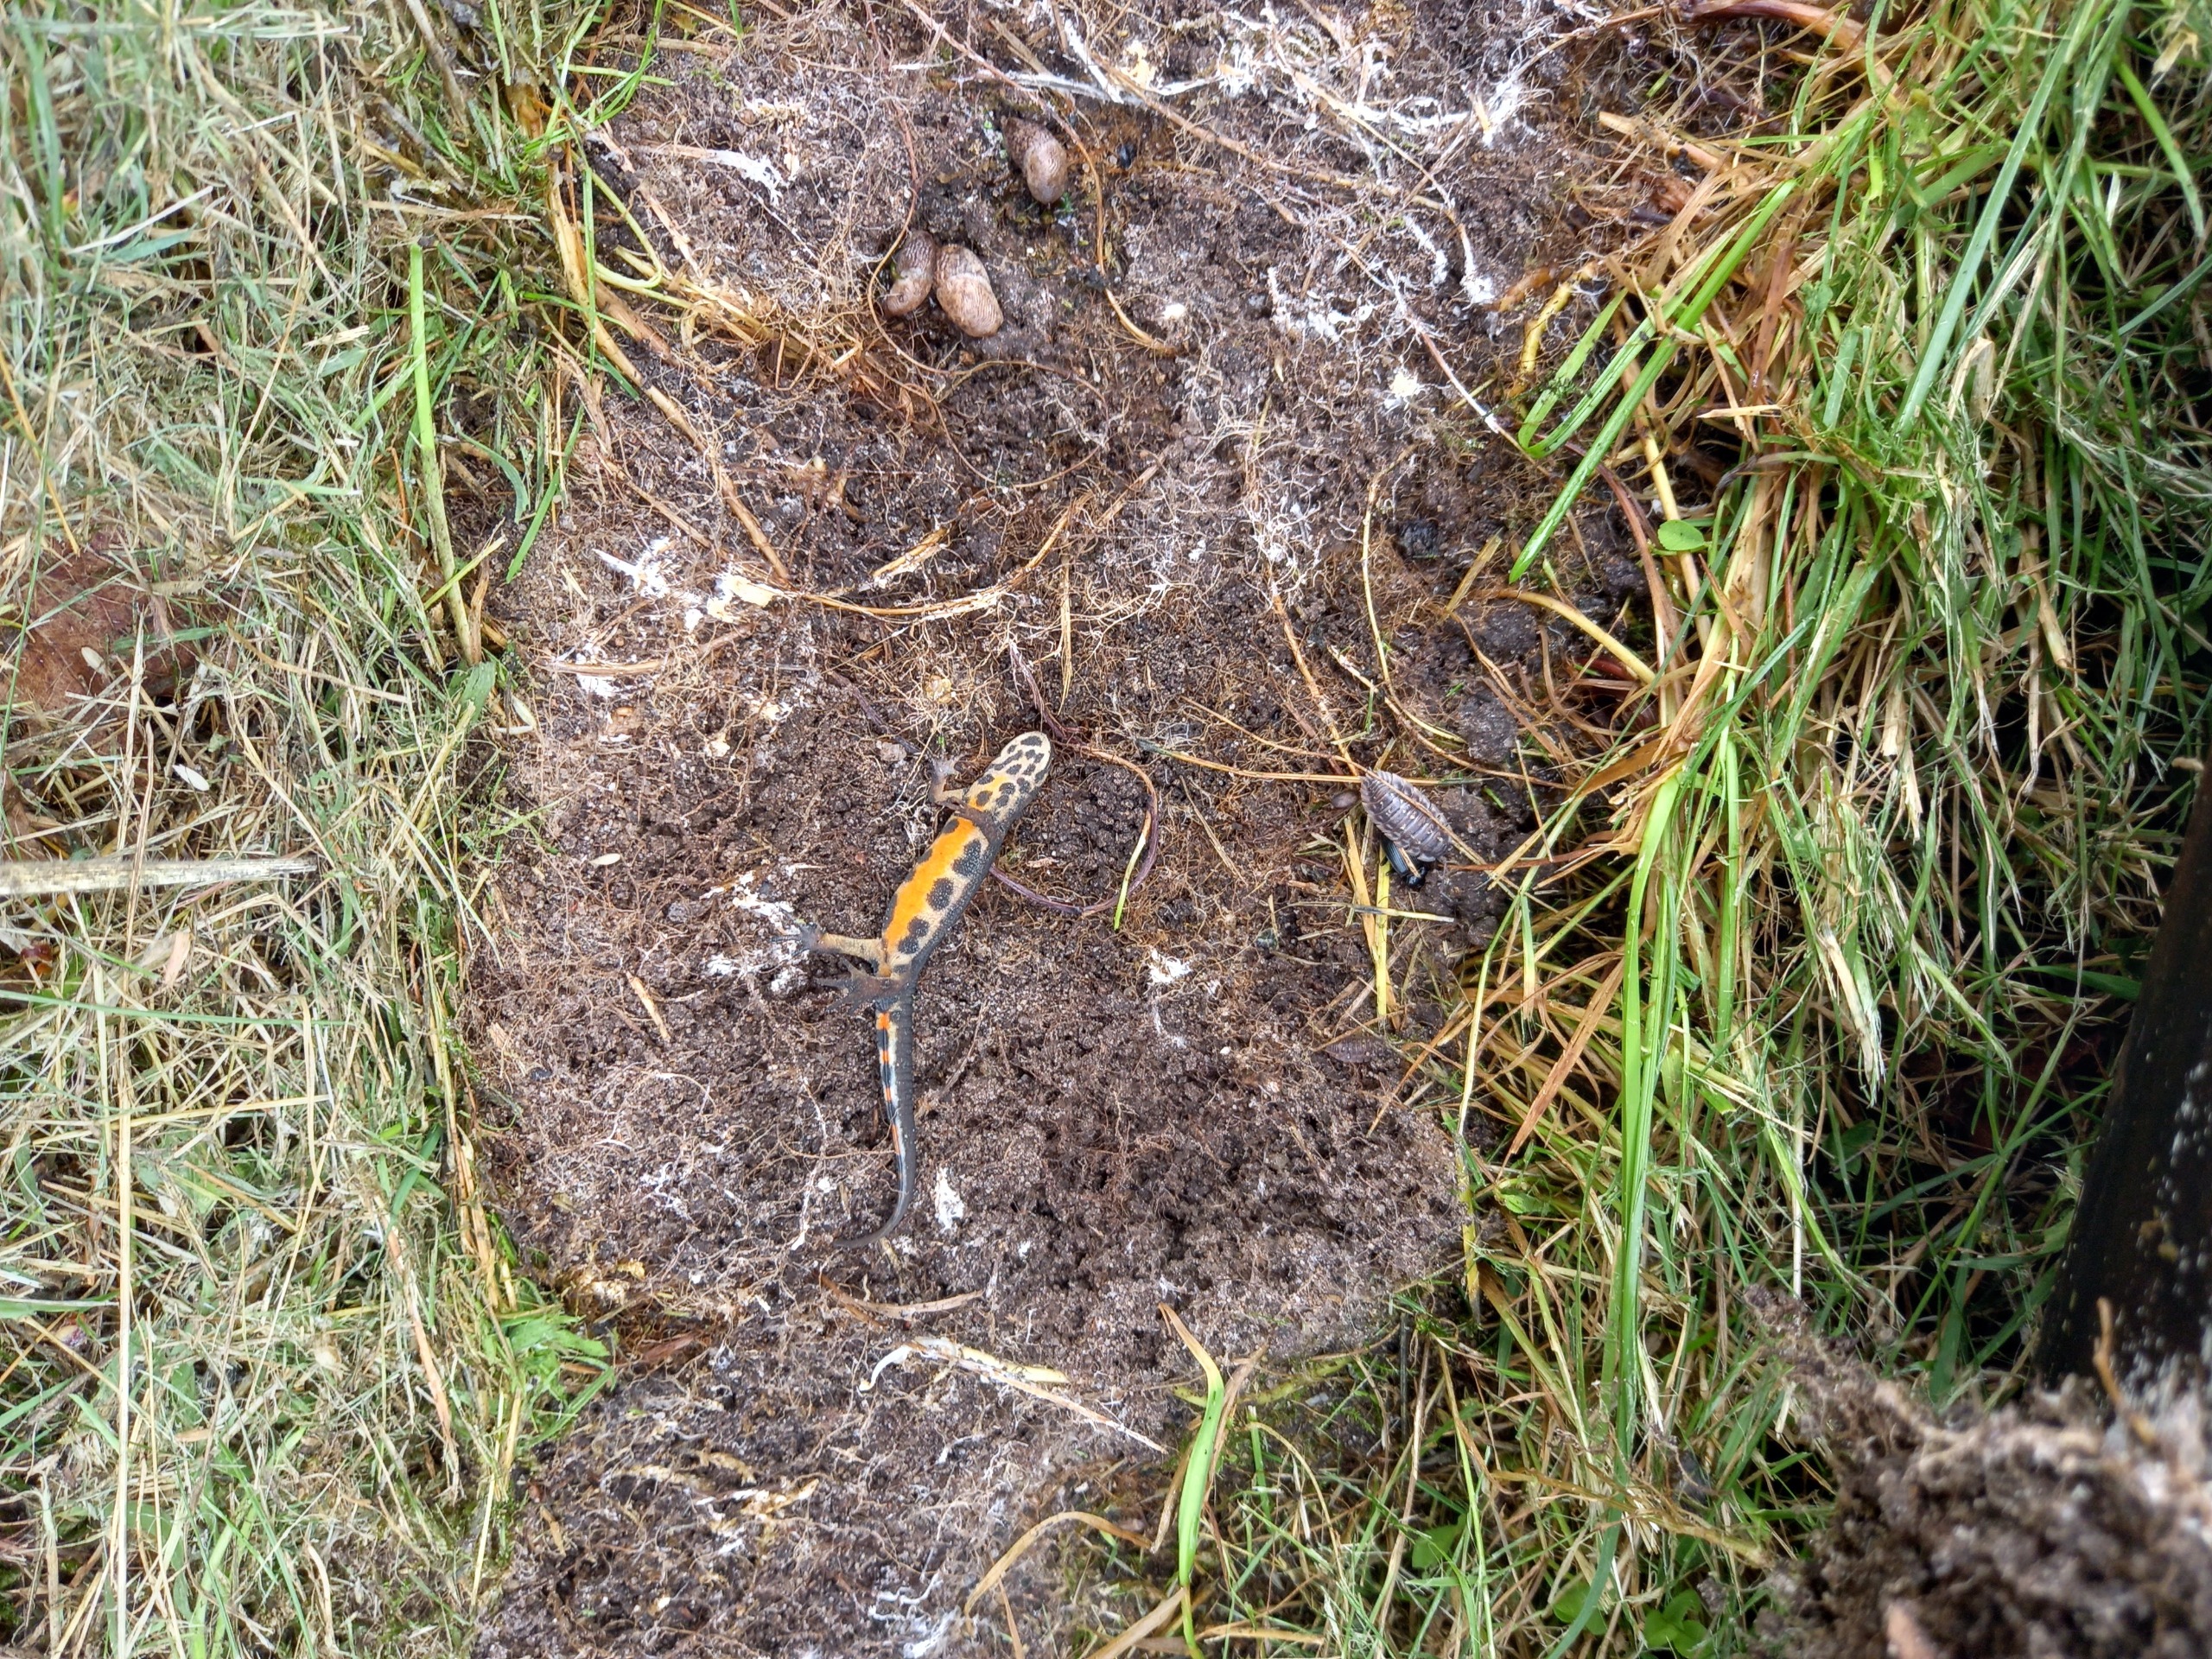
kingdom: Animalia
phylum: Chordata
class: Amphibia
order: Caudata
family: Salamandridae
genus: Lissotriton
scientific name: Lissotriton vulgaris
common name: Lille vandsalamander
